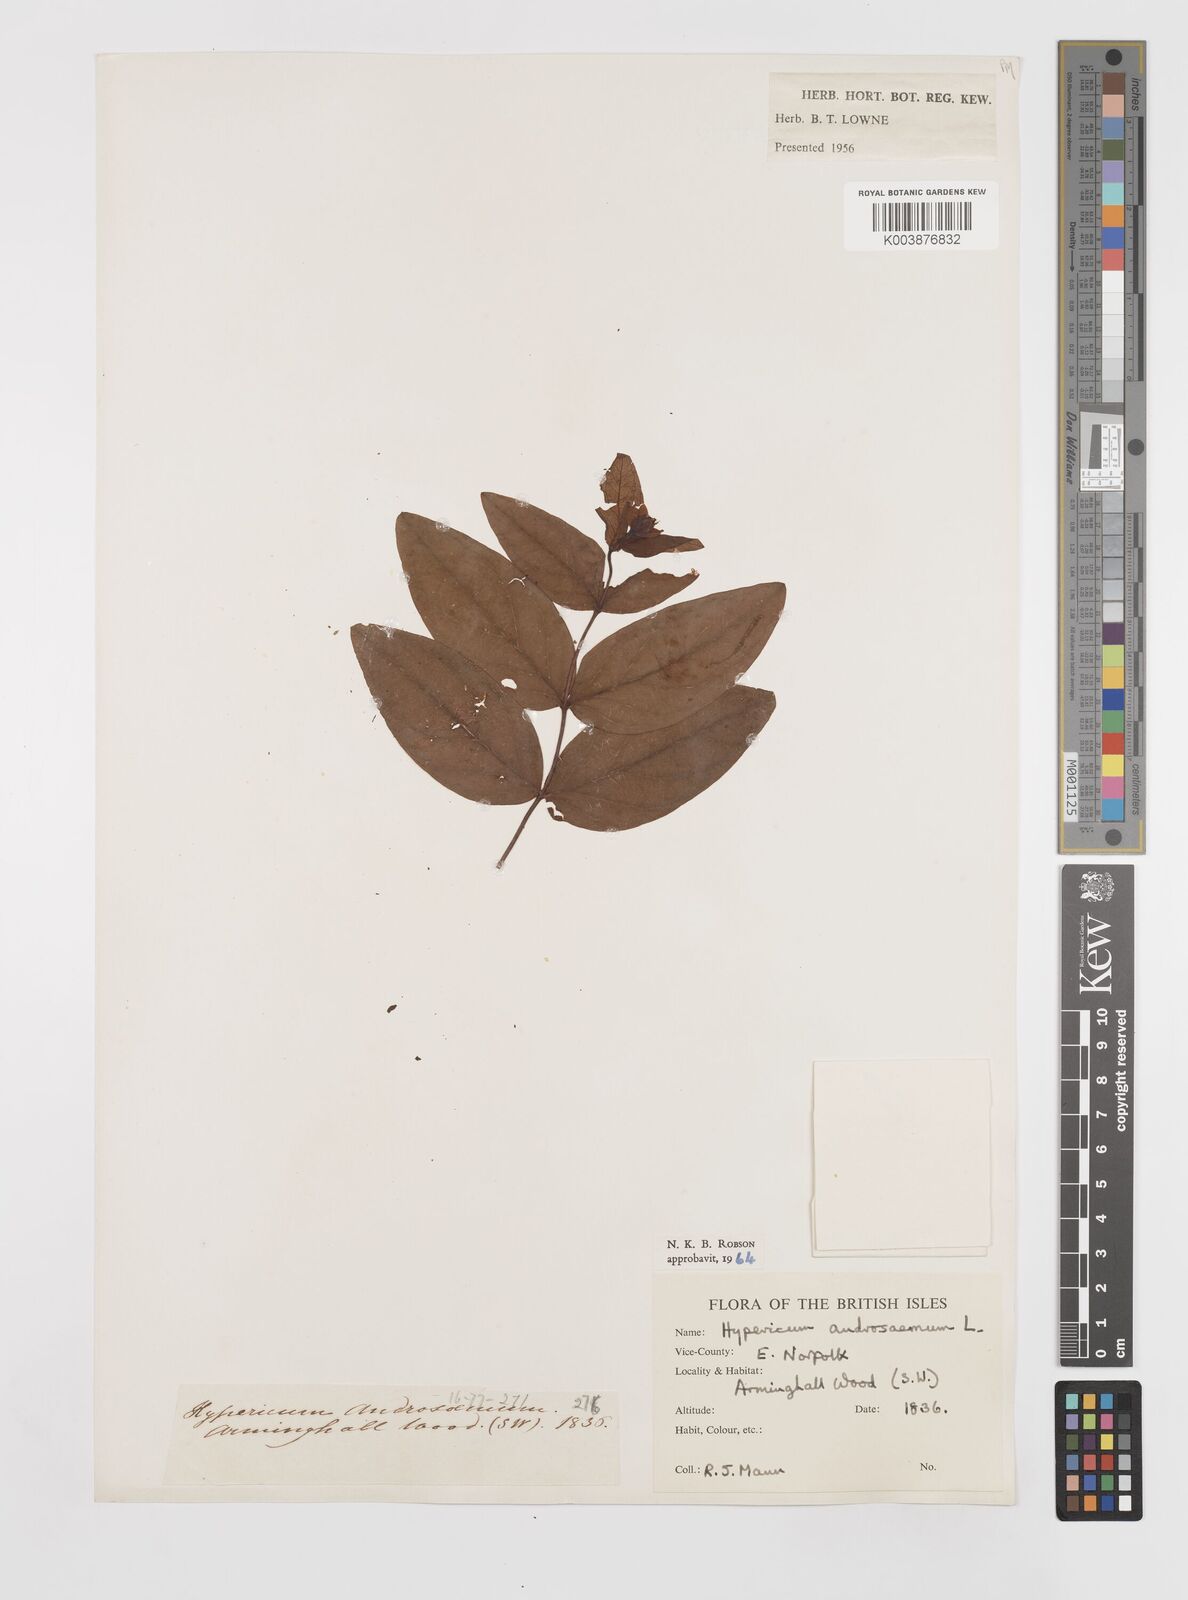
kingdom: Plantae
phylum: Tracheophyta
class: Magnoliopsida
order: Malpighiales
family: Hypericaceae
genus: Hypericum
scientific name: Hypericum androsaemum
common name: Sweet-amber
